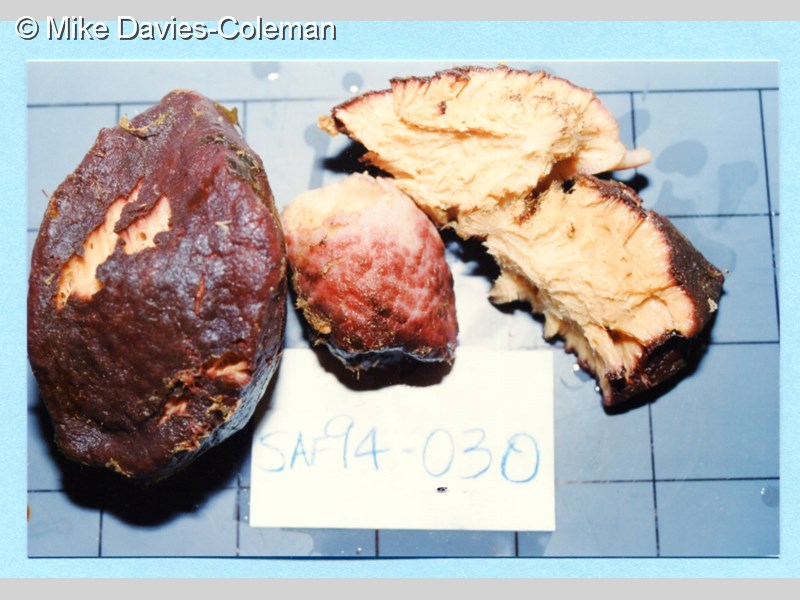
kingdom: Animalia
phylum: Porifera
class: Demospongiae
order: Suberitida
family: Suberitidae
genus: Aaptos
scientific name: Aaptos
